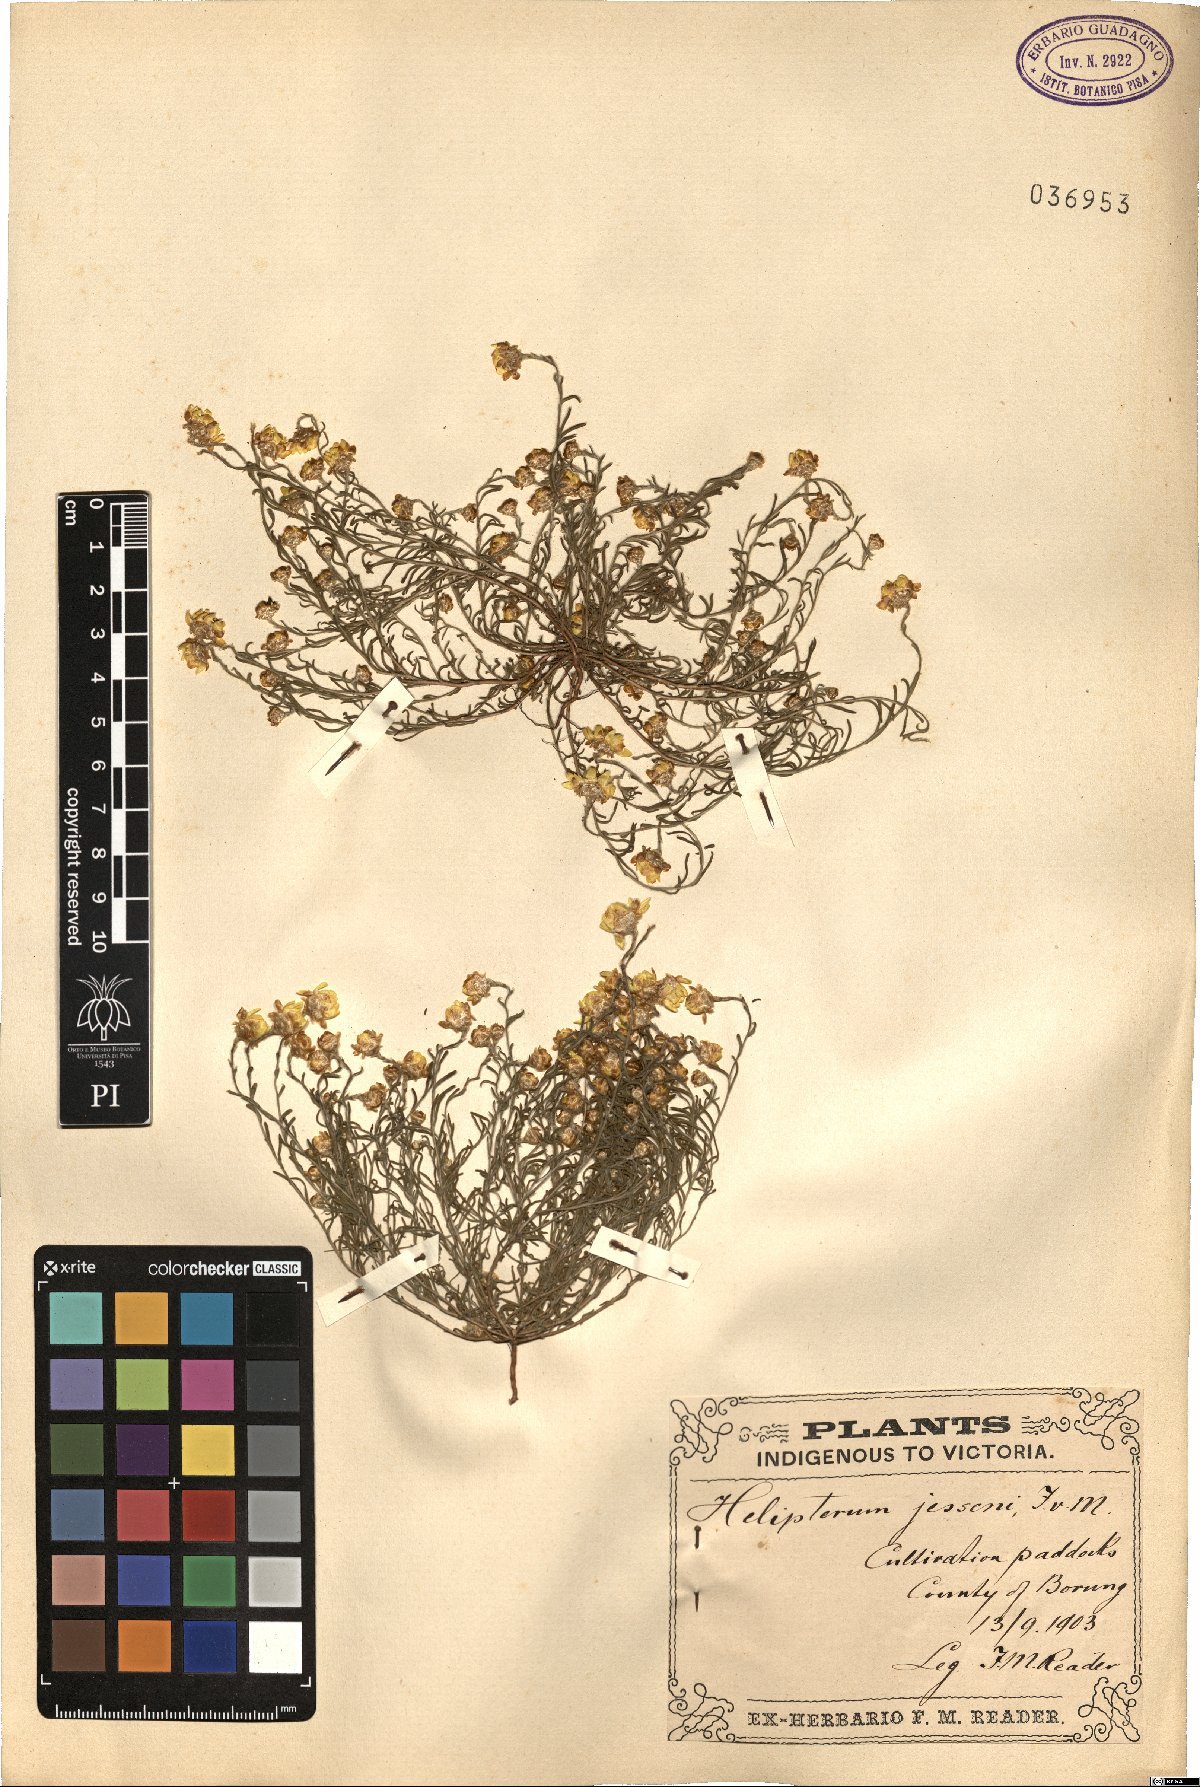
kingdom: Plantae
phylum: Tracheophyta
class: Magnoliopsida
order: Asterales
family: Asteraceae
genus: Hyalosperma
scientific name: Hyalosperma semisterile
